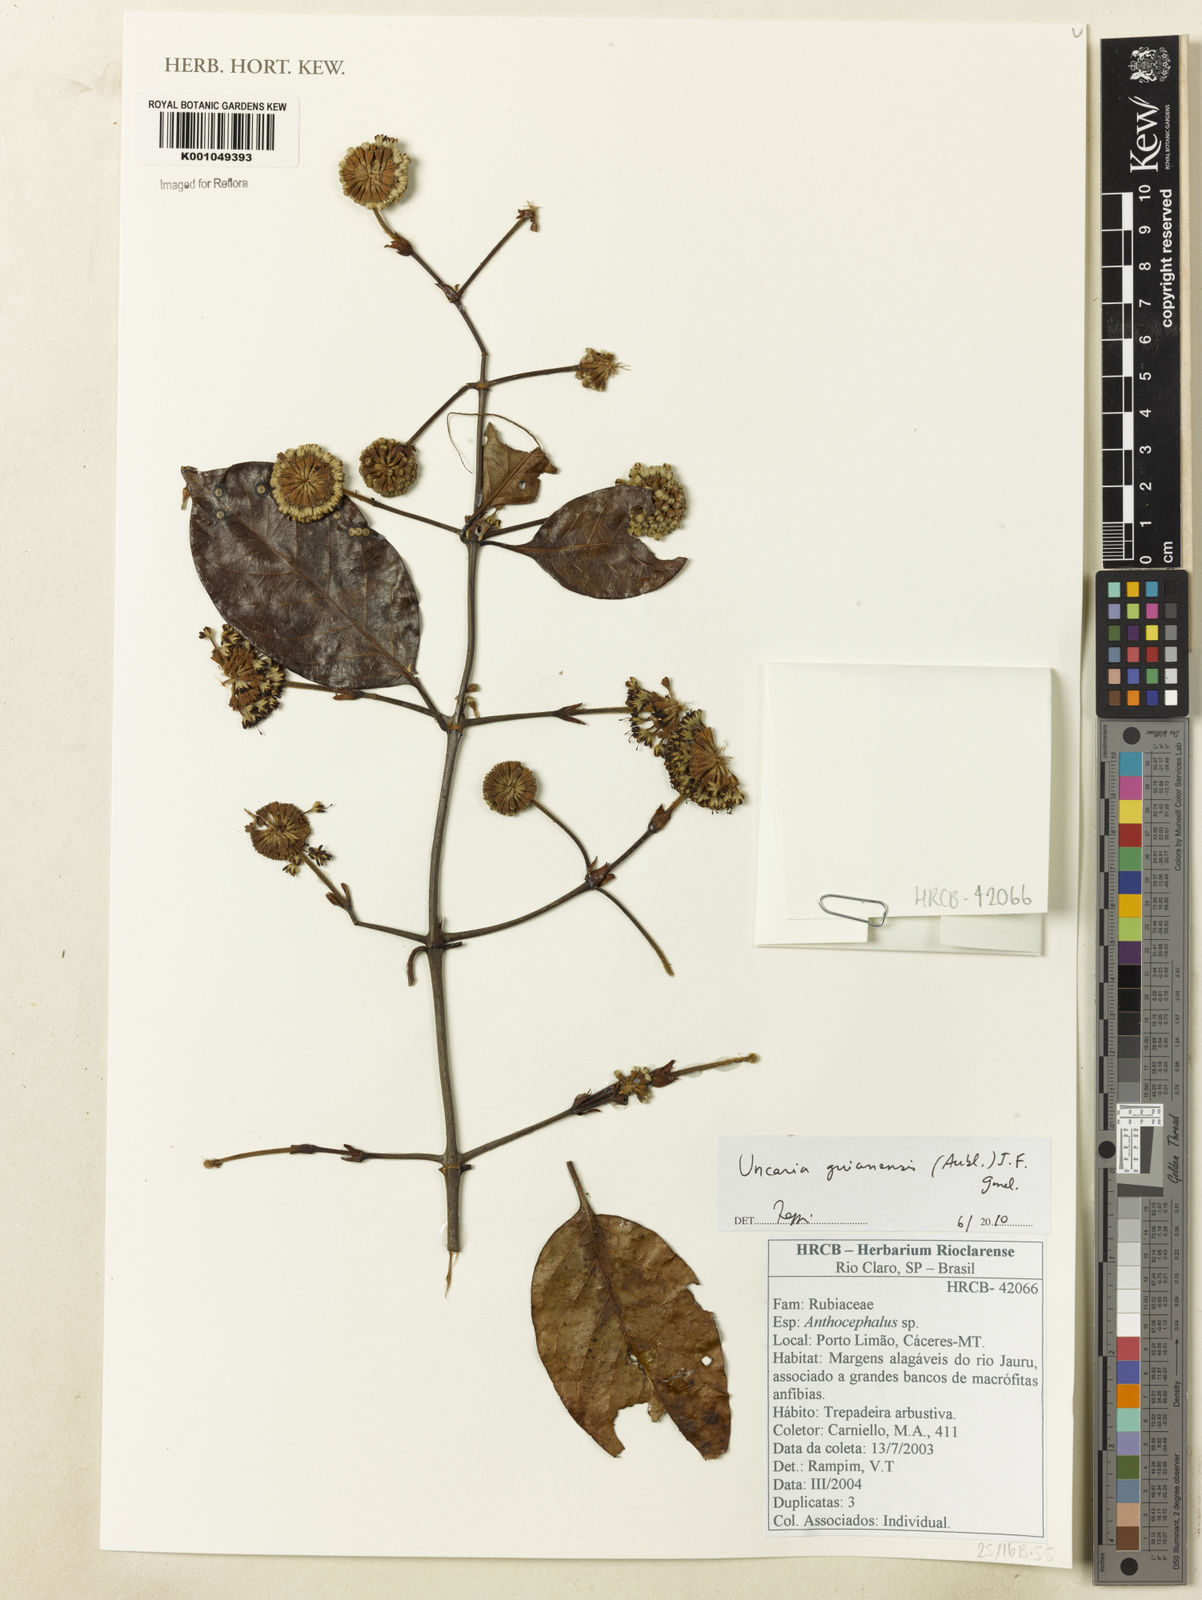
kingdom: Plantae
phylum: Tracheophyta
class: Magnoliopsida
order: Gentianales
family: Rubiaceae
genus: Uncaria
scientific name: Uncaria guianensis
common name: Cat's-claw
